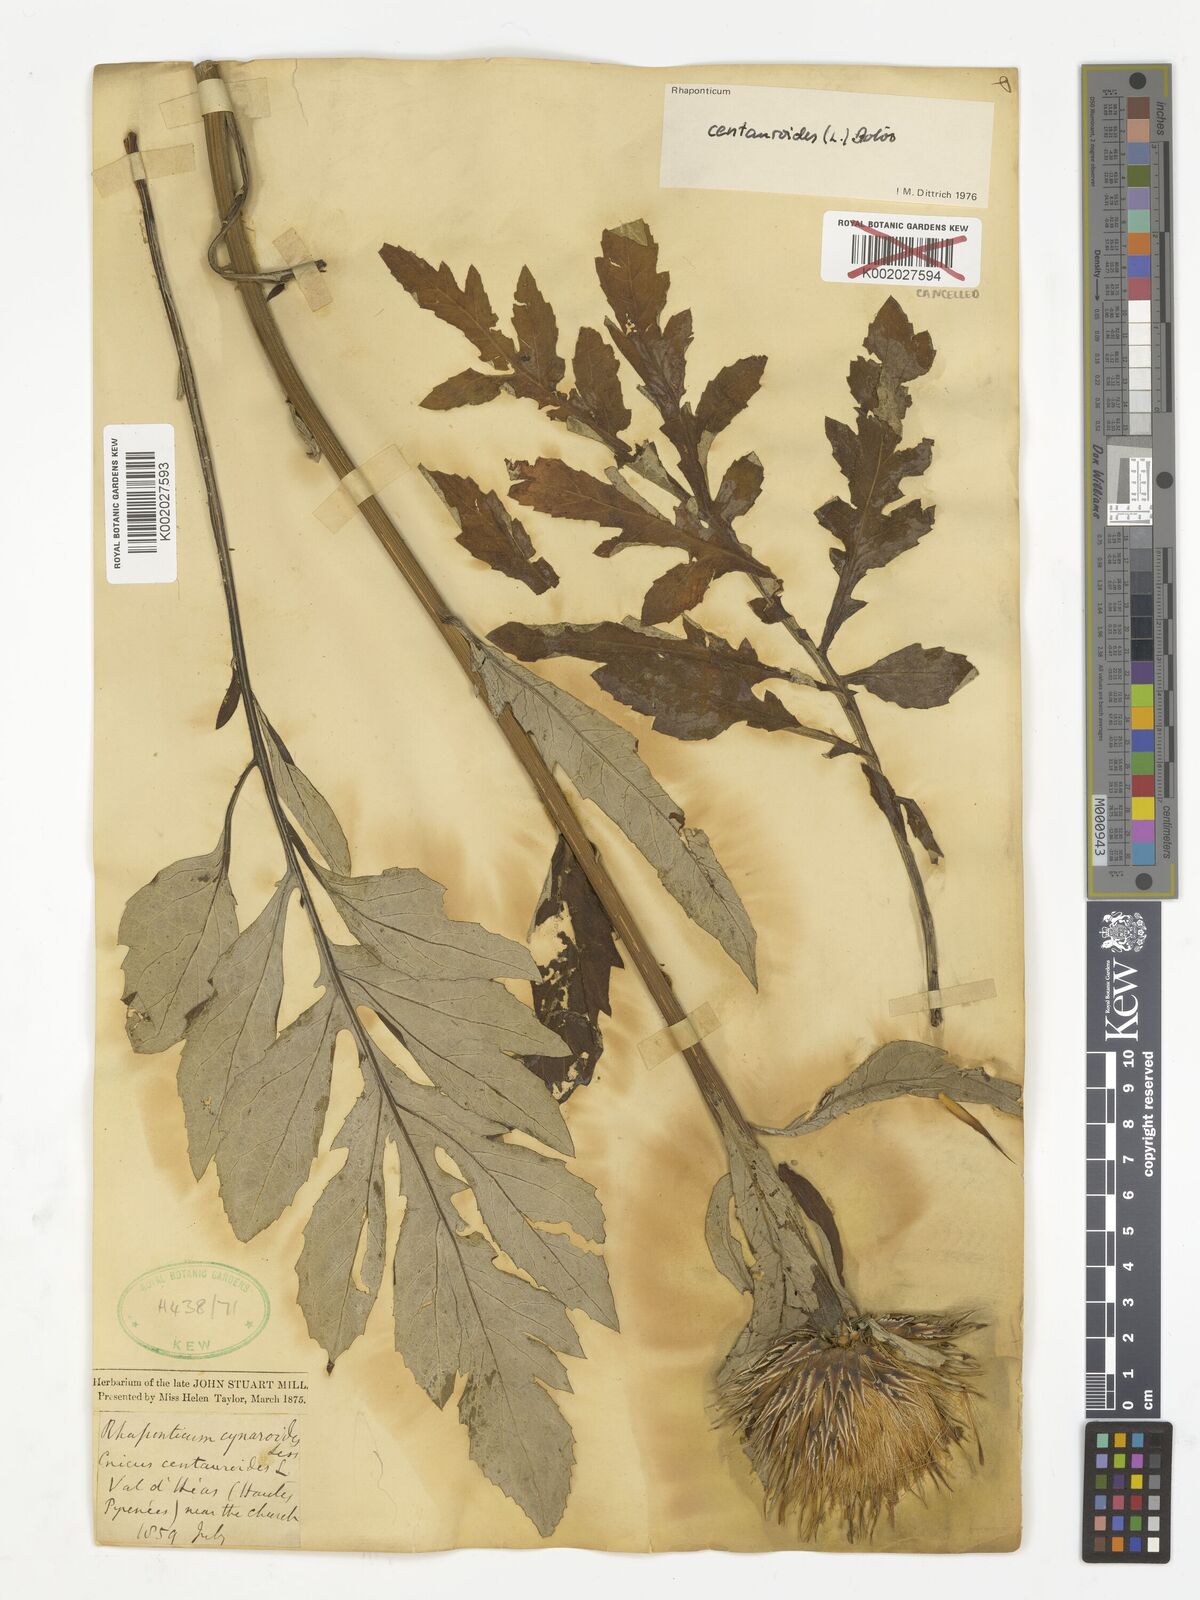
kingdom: Plantae
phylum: Tracheophyta
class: Magnoliopsida
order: Asterales
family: Asteraceae
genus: Leuzea
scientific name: Leuzea centauroides
